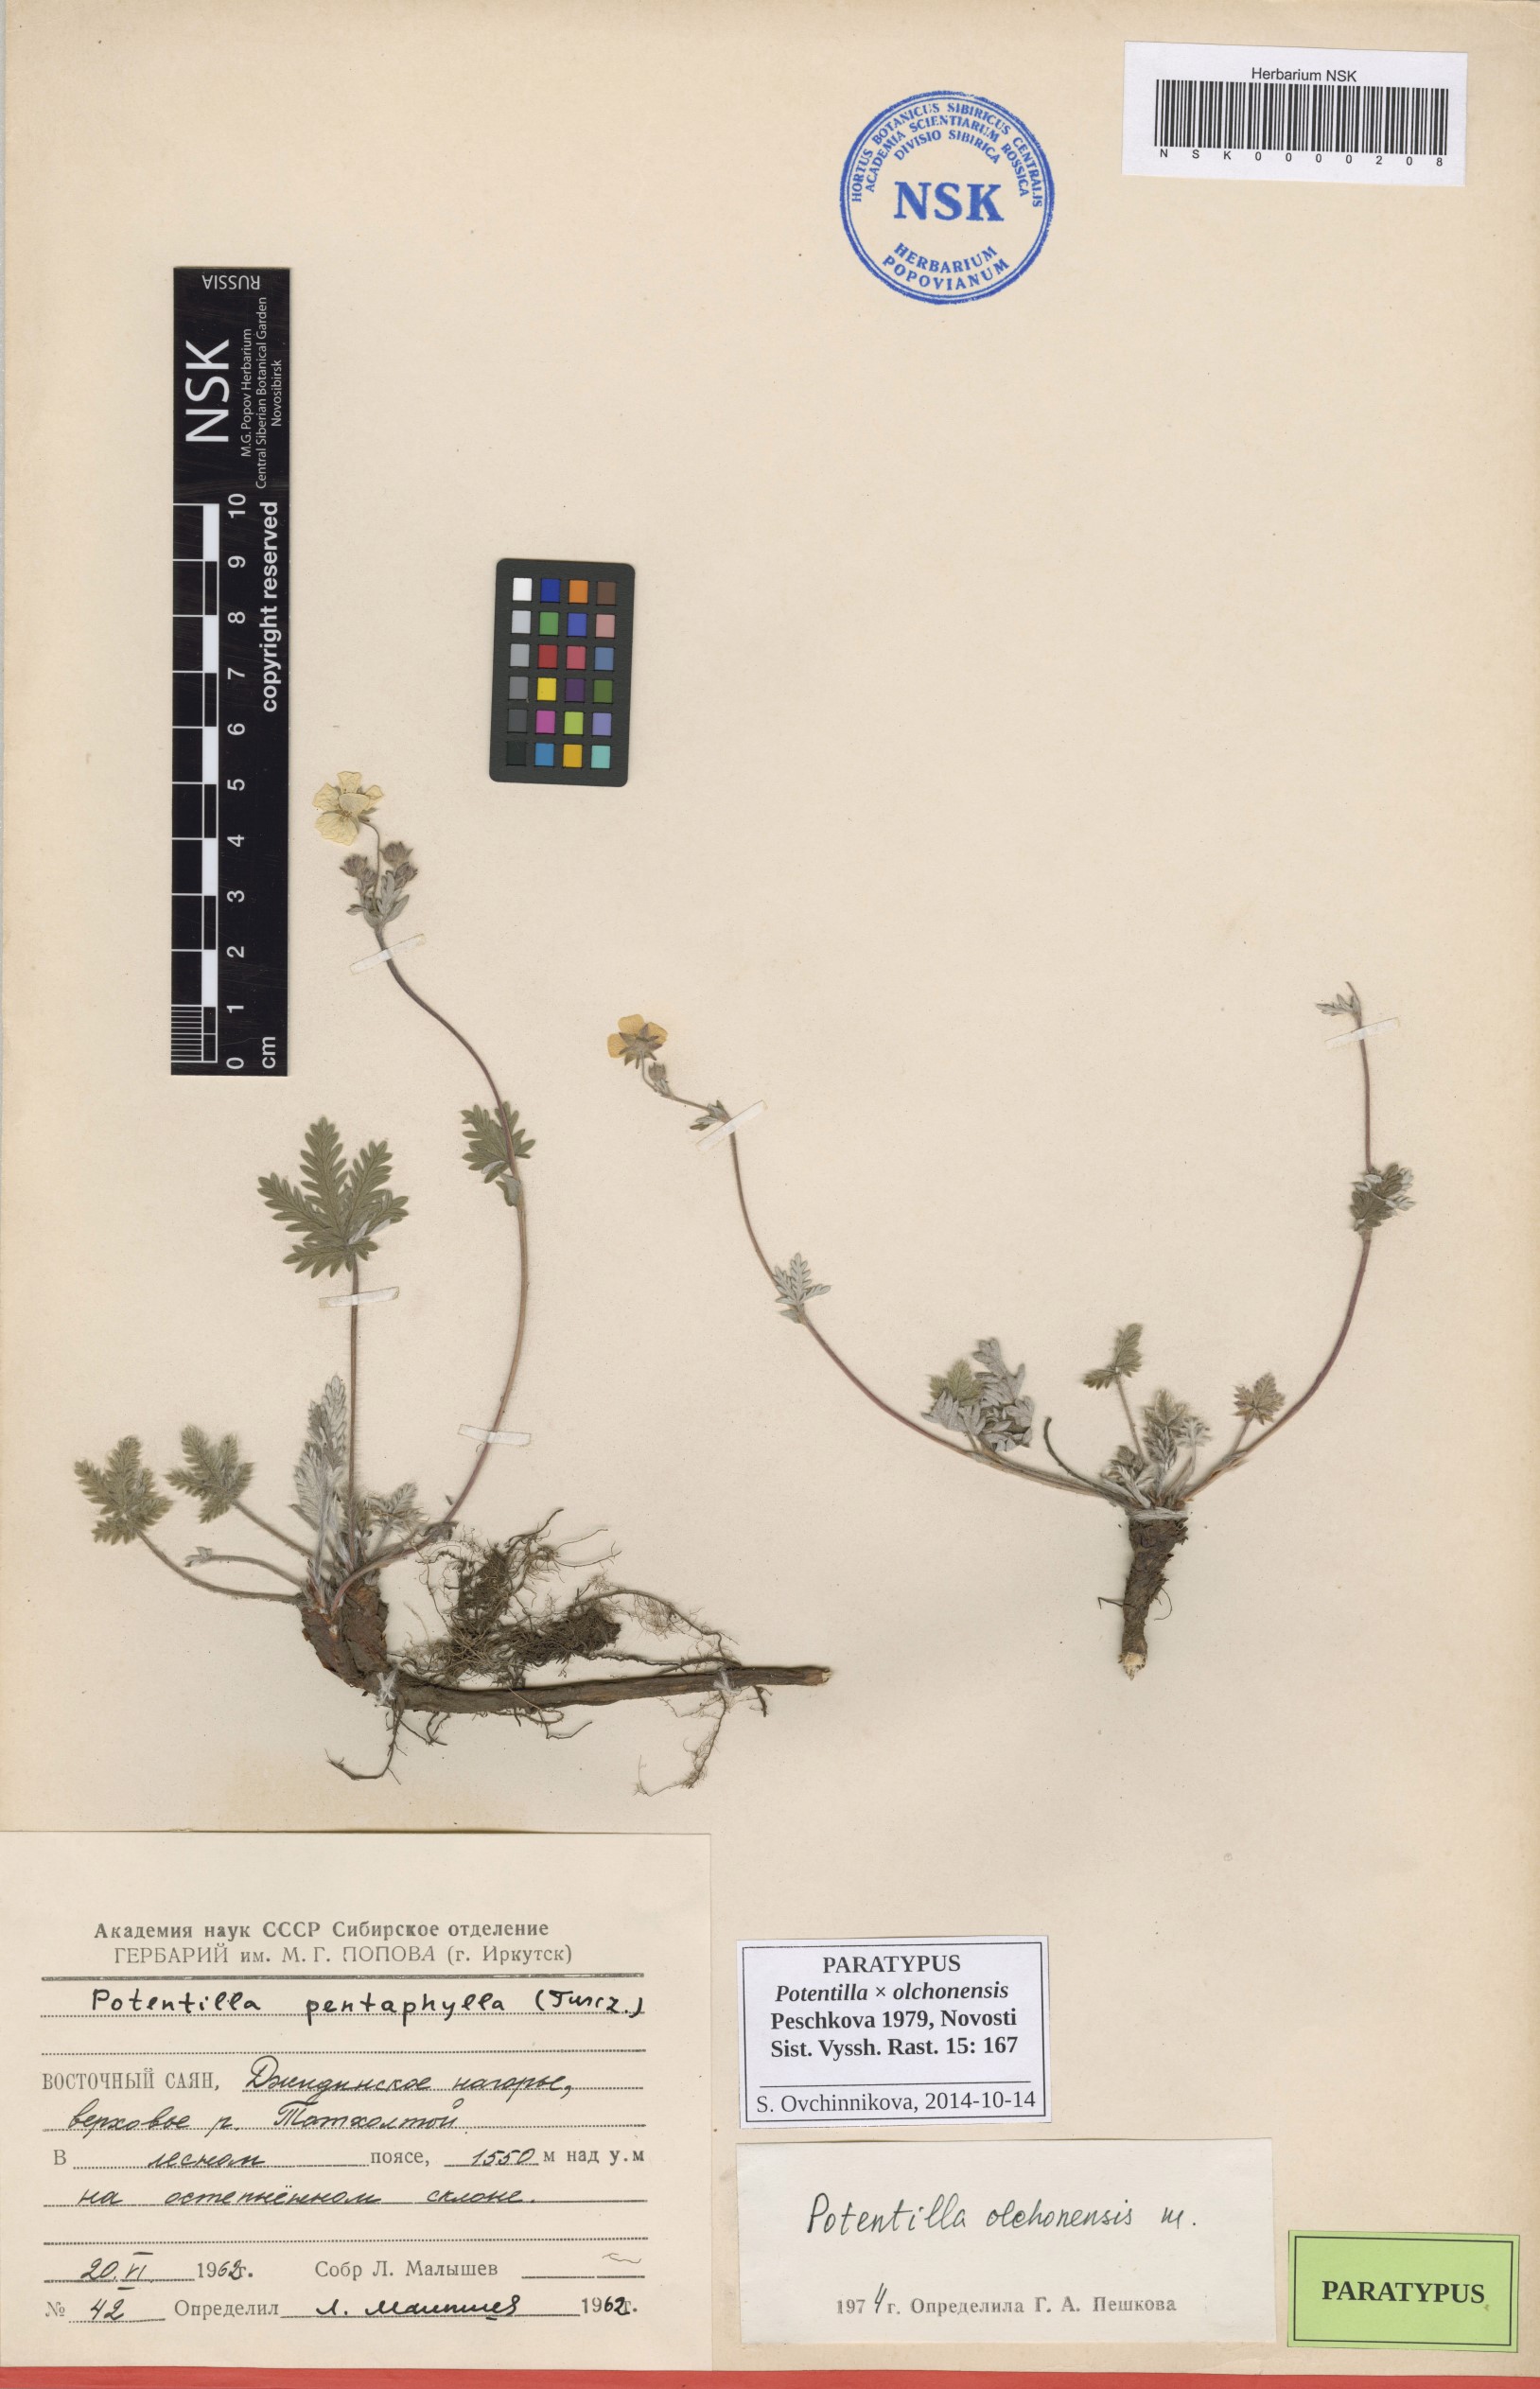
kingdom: Plantae
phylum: Tracheophyta
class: Magnoliopsida
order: Rosales
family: Rosaceae
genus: Potentilla
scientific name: Potentilla olchonensis
